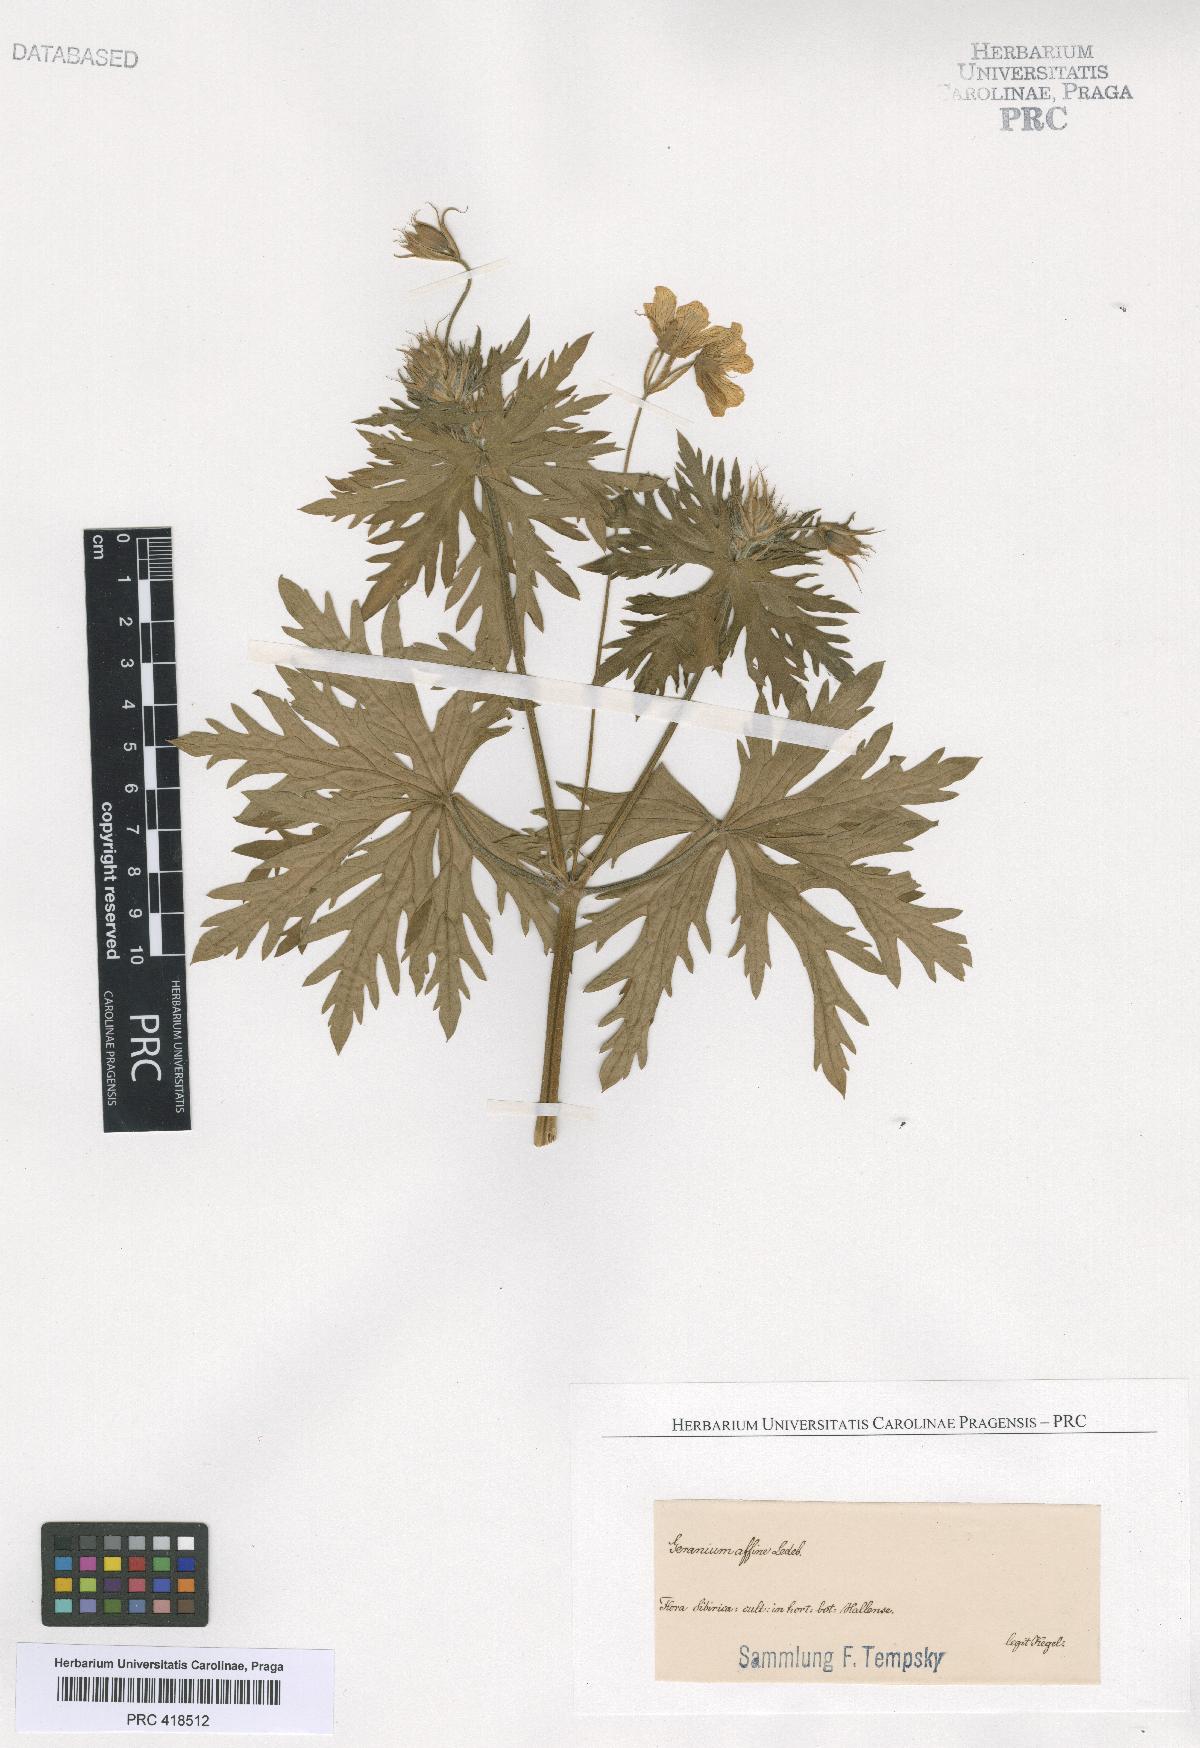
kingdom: Plantae
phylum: Tracheophyta
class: Magnoliopsida
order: Geraniales
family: Geraniaceae
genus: Geranium
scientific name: Geranium pratense
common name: Meadow crane's-bill
